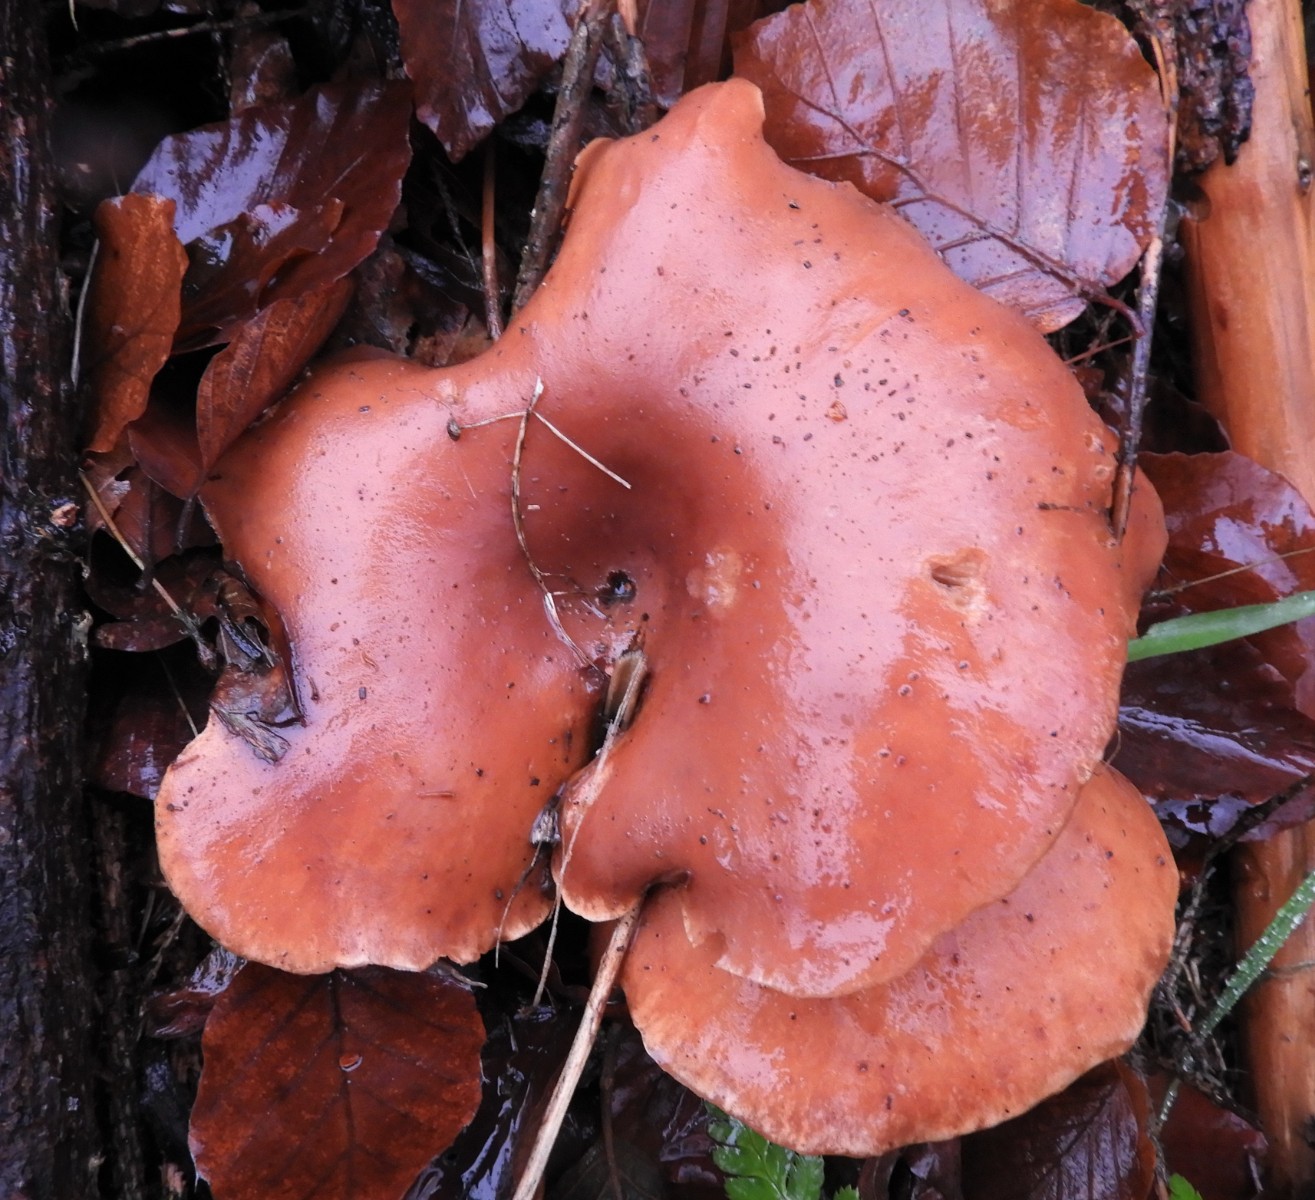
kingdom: Fungi
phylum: Basidiomycota
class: Agaricomycetes
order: Agaricales
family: Tricholomataceae
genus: Paralepista
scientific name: Paralepista flaccida
